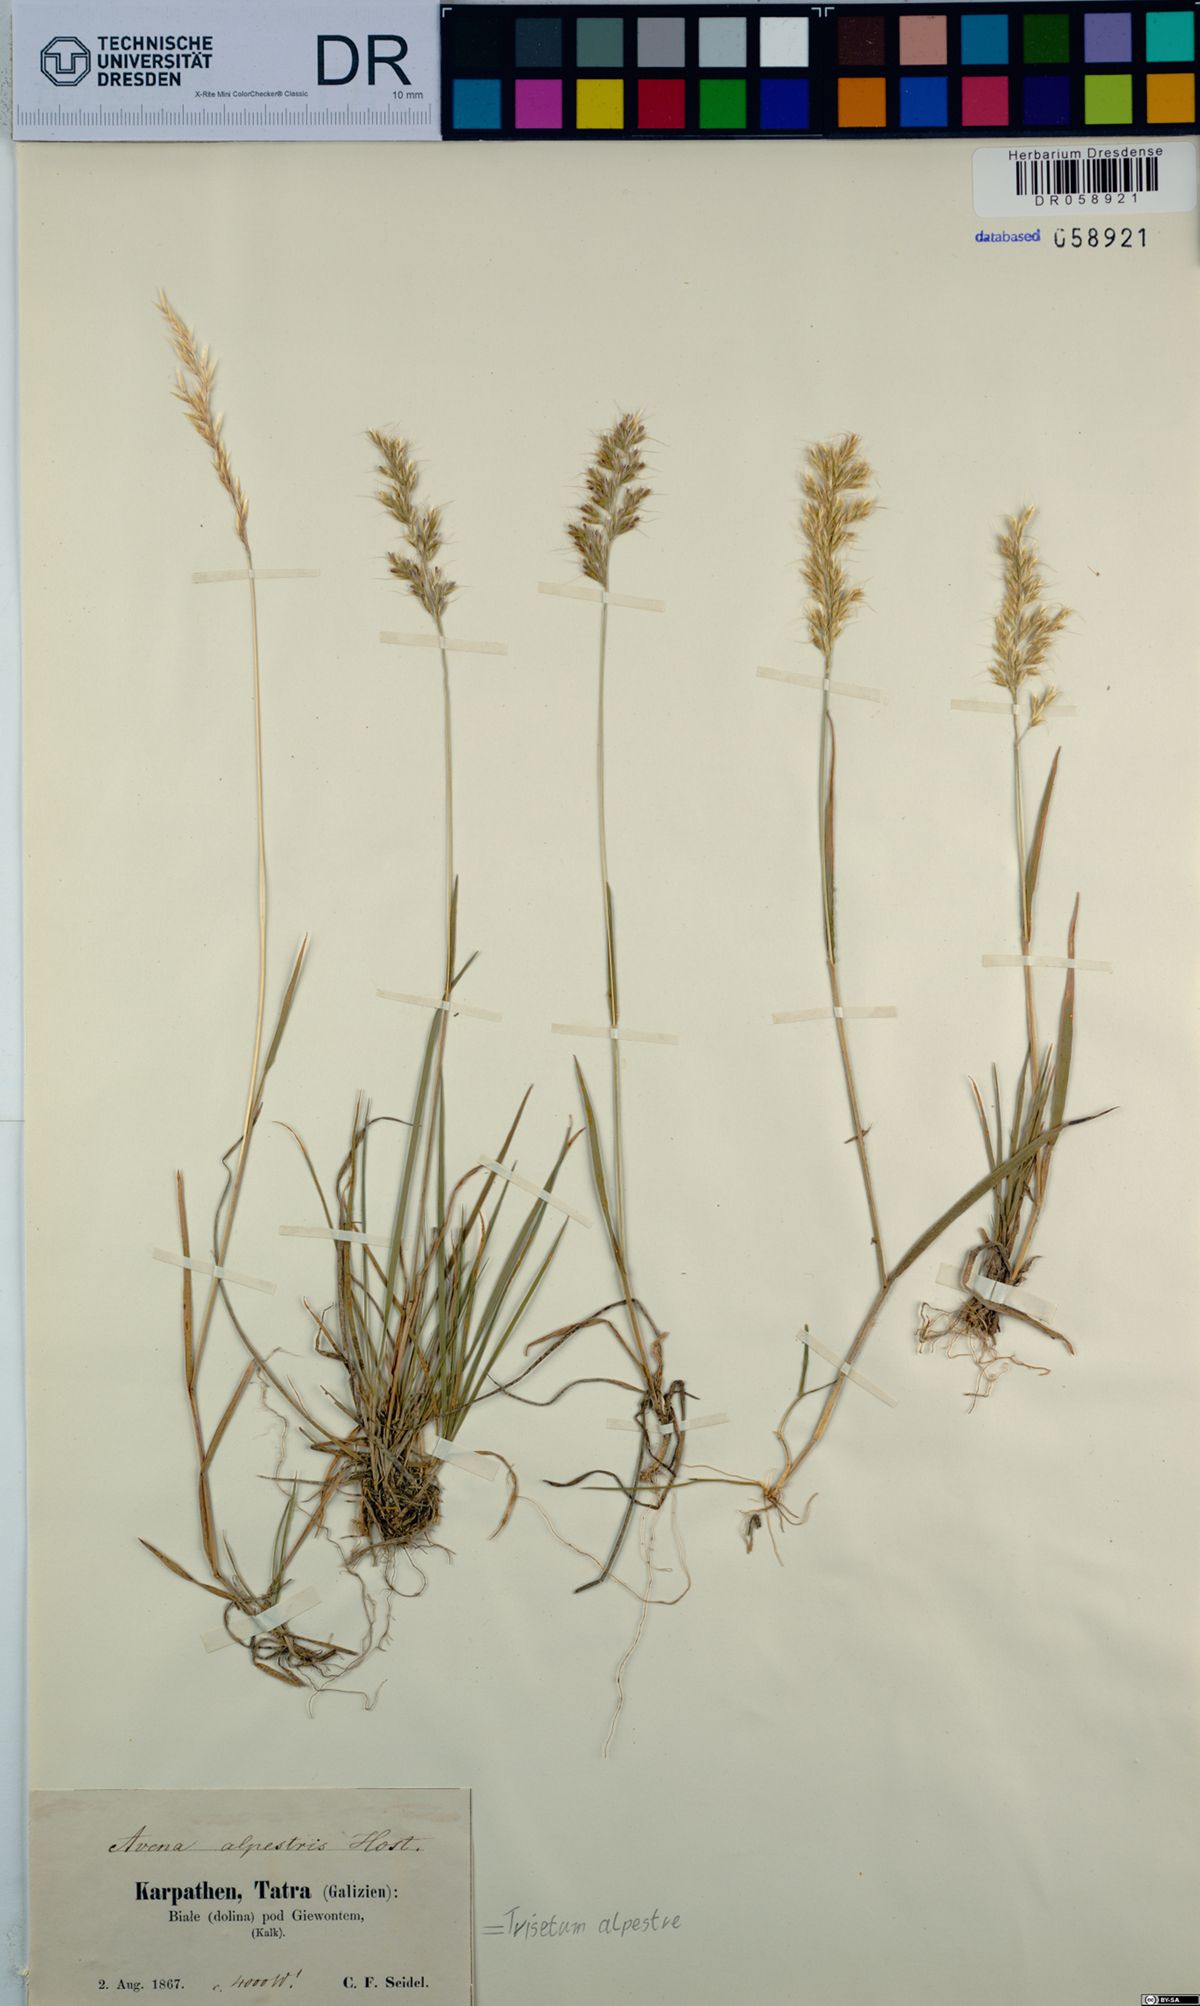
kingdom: Plantae
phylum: Tracheophyta
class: Liliopsida
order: Poales
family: Poaceae
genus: Trisetum
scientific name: Trisetum alpestre
